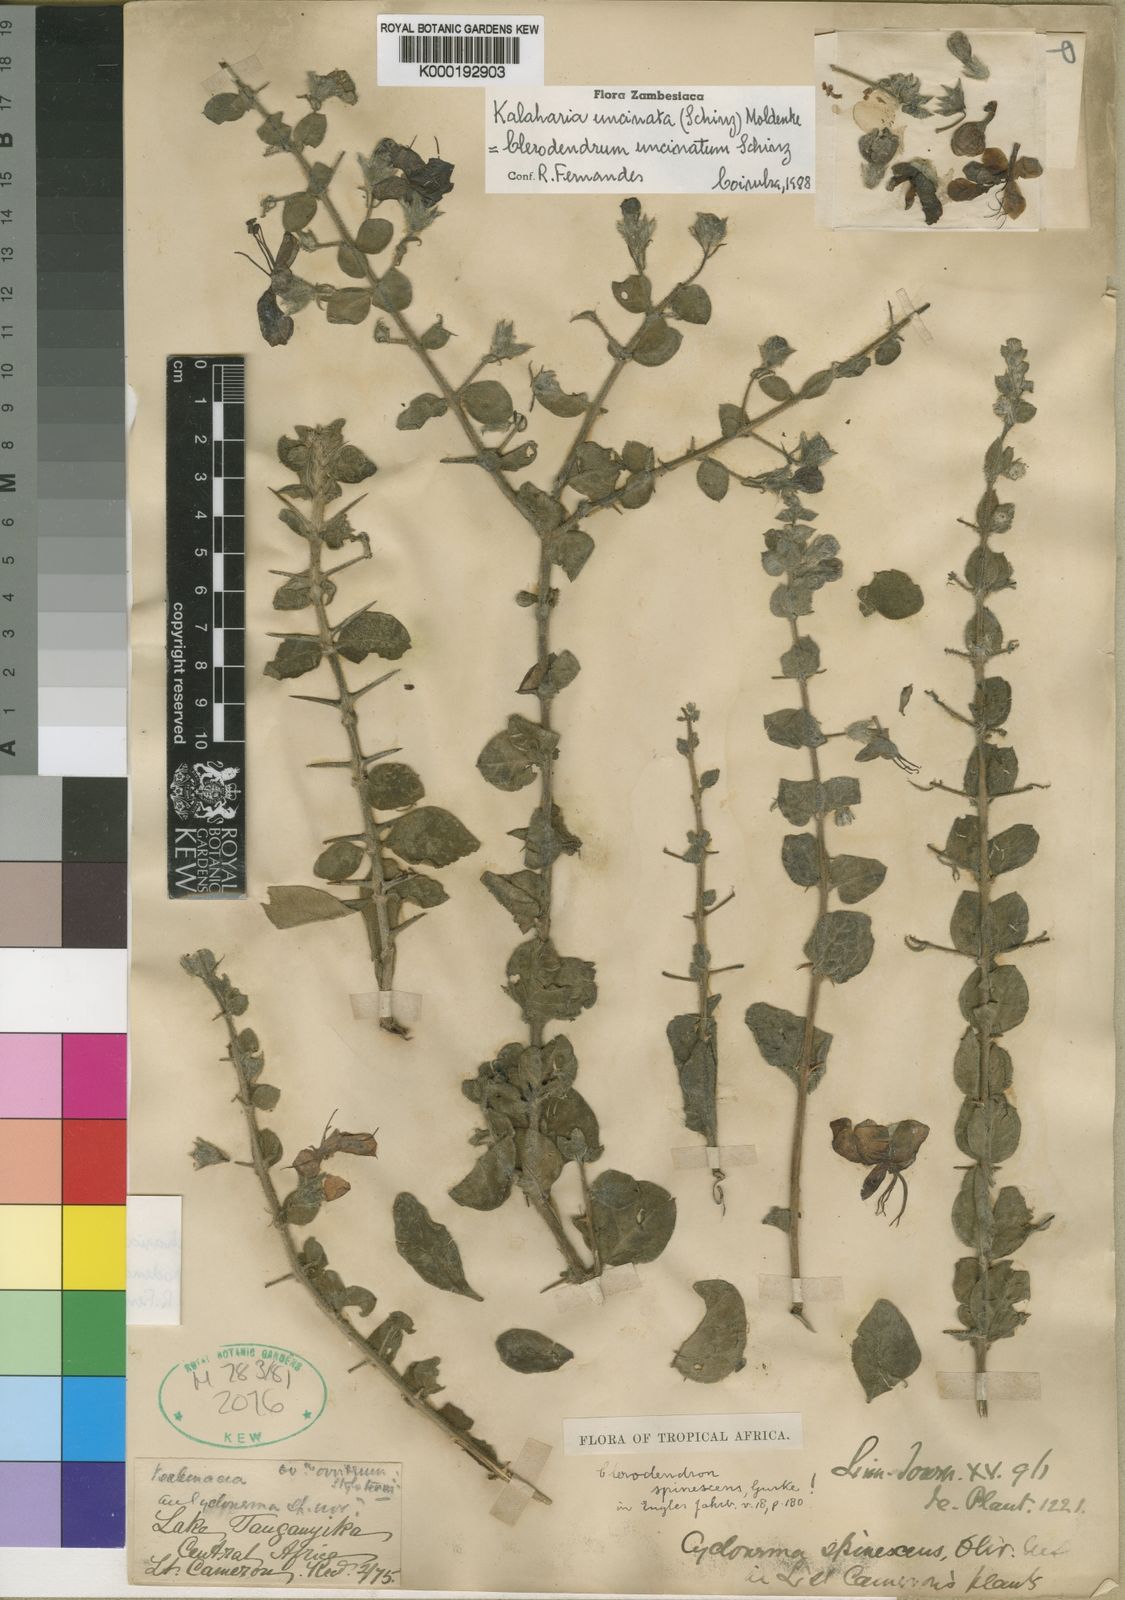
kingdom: Plantae
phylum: Tracheophyta
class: Magnoliopsida
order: Lamiales
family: Lamiaceae
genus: Kalaharia
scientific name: Kalaharia uncinata
